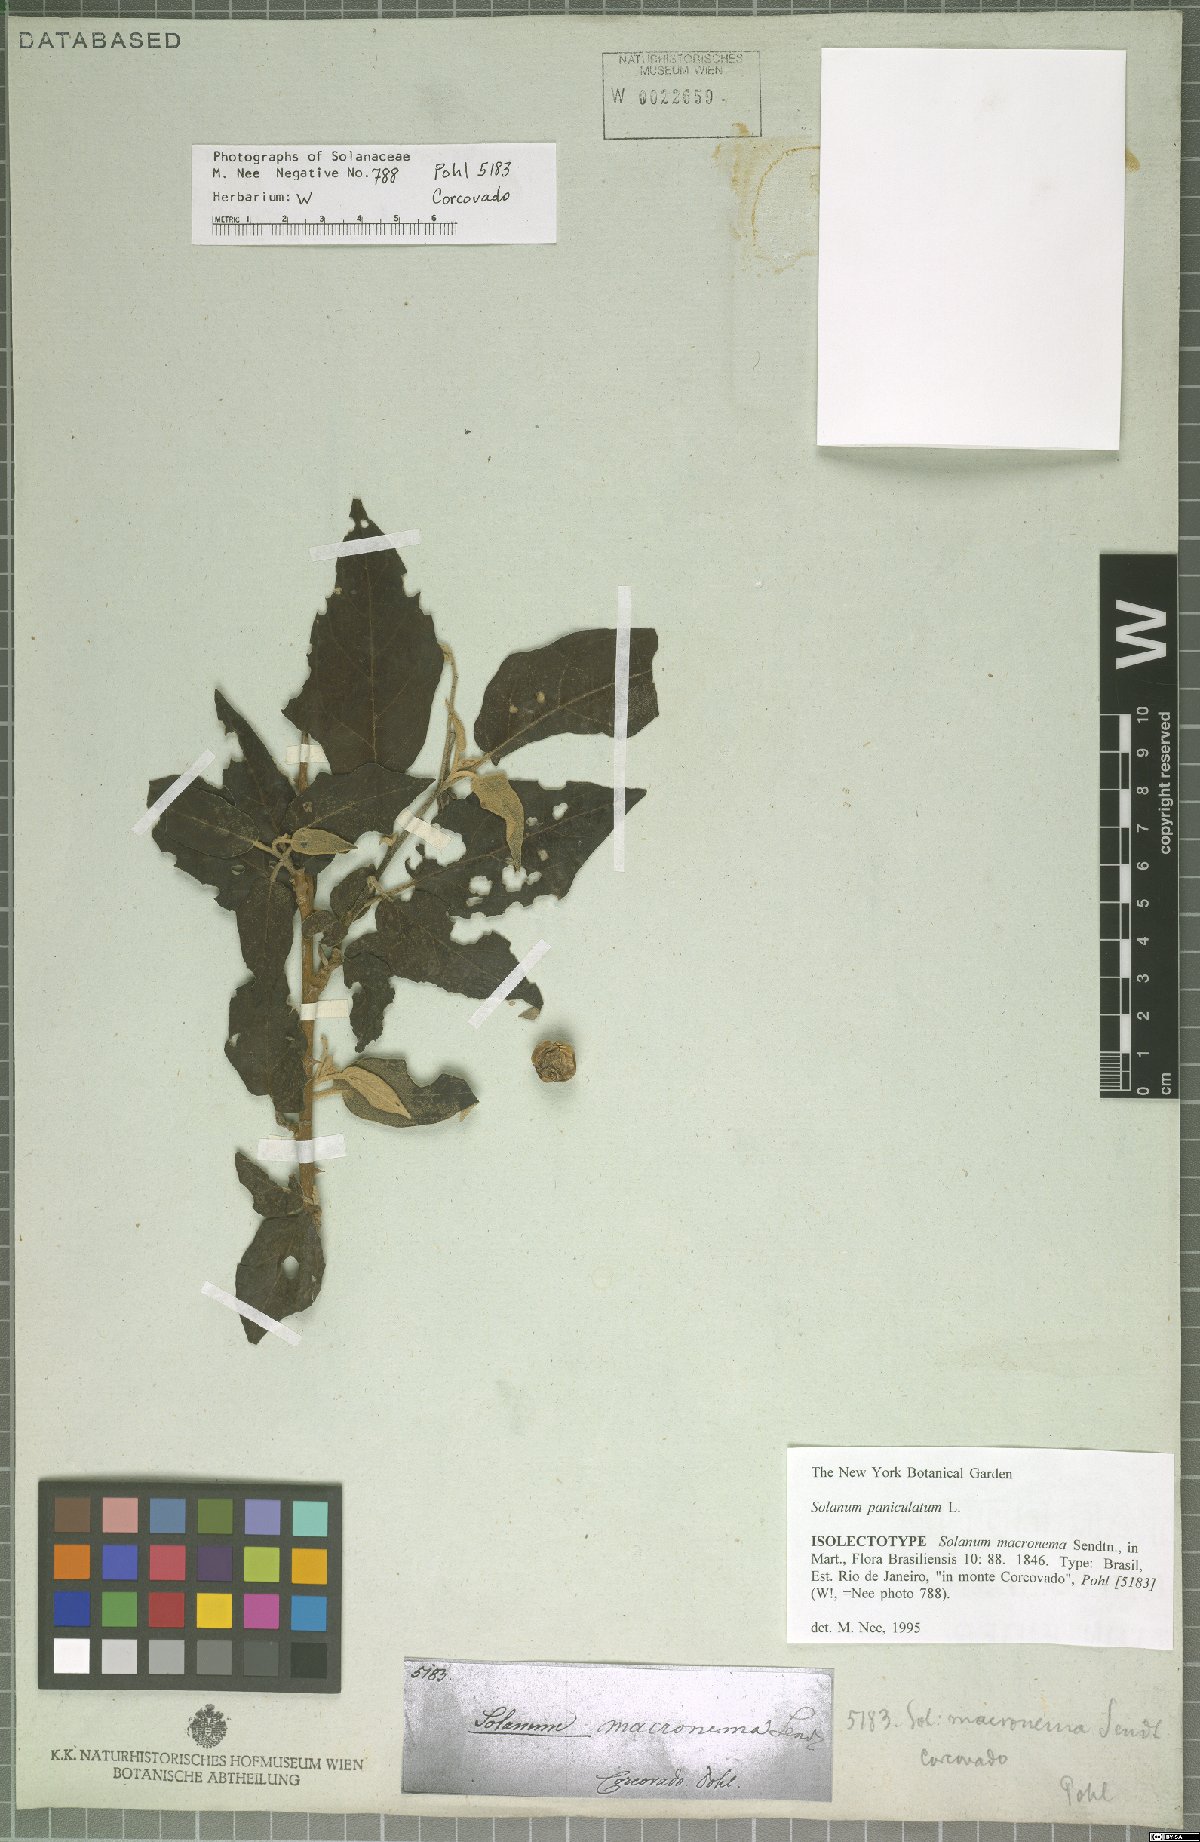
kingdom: Plantae
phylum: Tracheophyta
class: Magnoliopsida
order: Solanales
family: Solanaceae
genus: Solanum
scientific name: Solanum paniculatum
